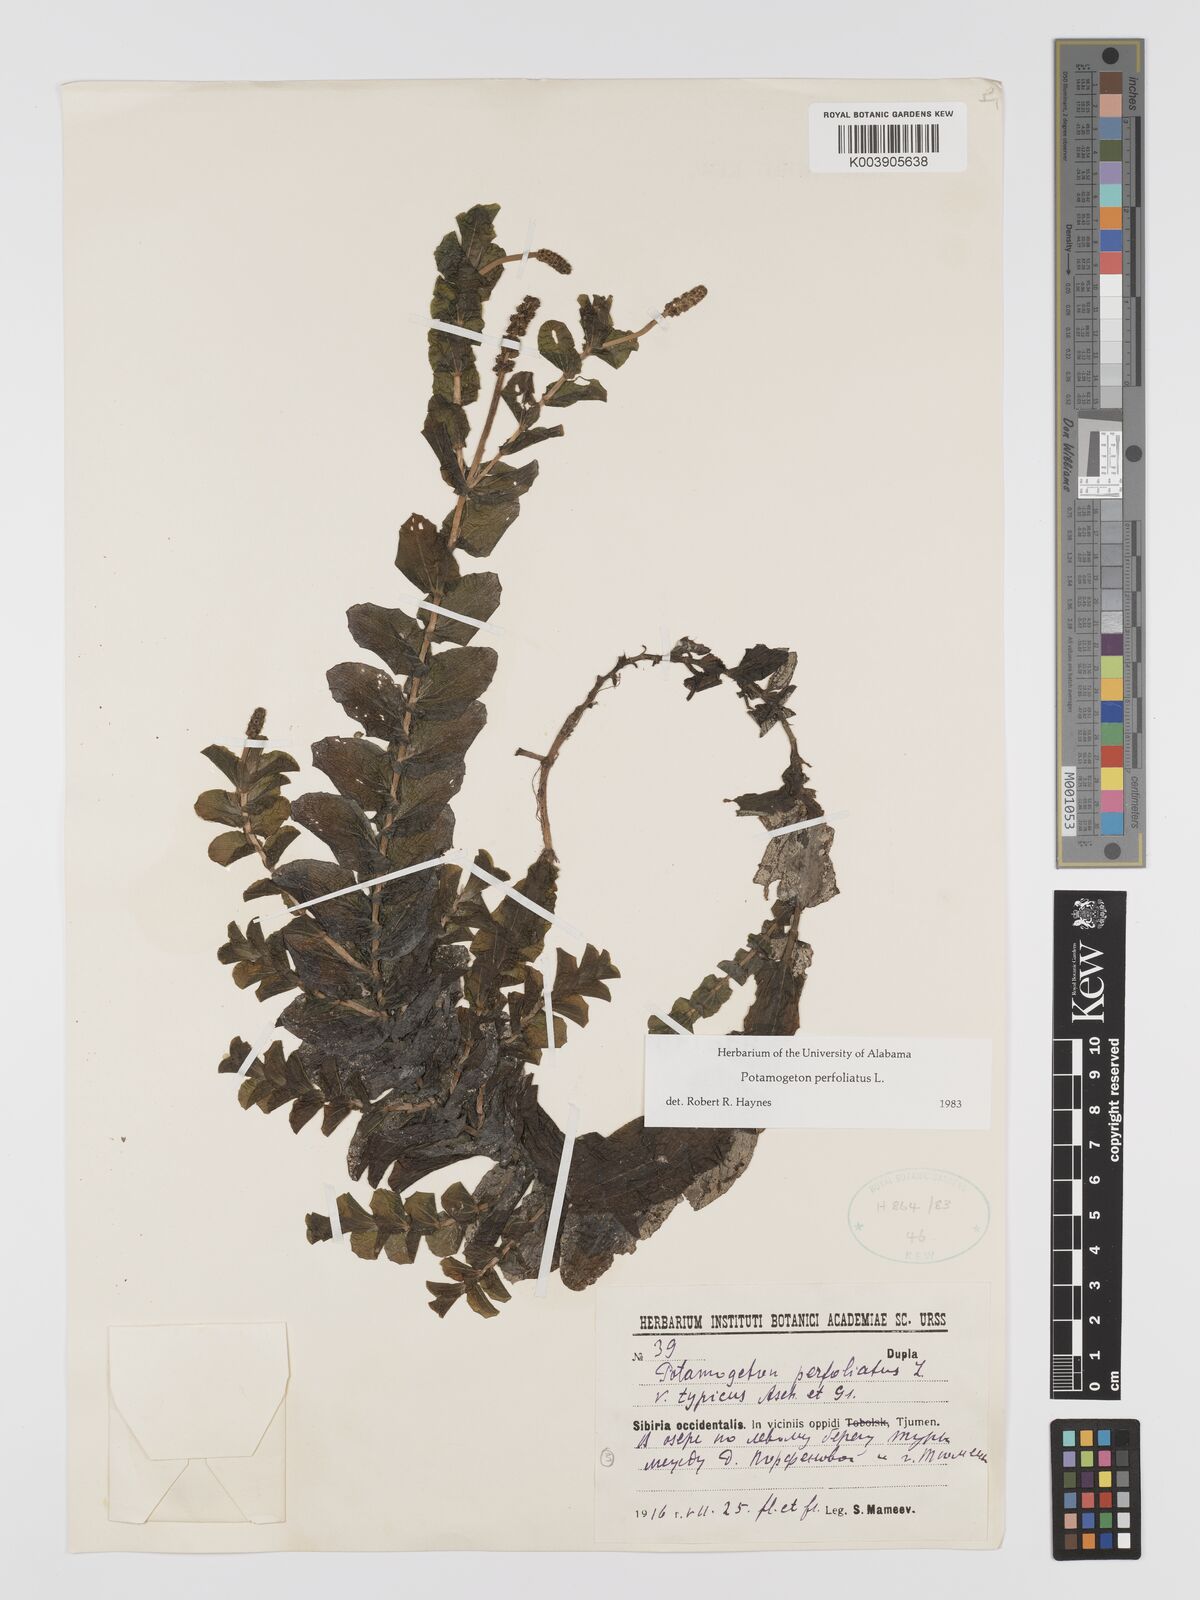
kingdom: Plantae
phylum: Tracheophyta
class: Liliopsida
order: Alismatales
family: Potamogetonaceae
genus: Potamogeton
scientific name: Potamogeton perfoliatus
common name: Perfoliate pondweed
